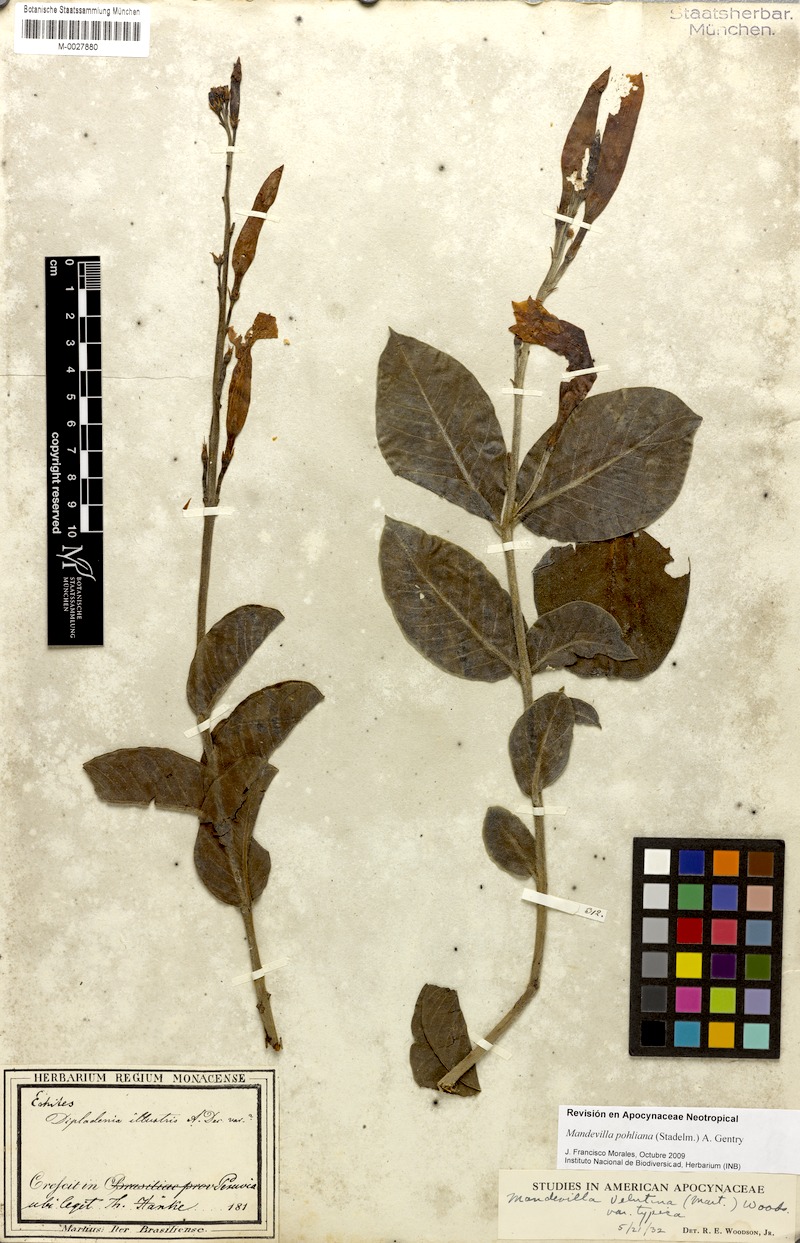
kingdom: Plantae
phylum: Tracheophyta
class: Magnoliopsida
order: Gentianales
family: Apocynaceae
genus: Mandevilla
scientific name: Mandevilla pohliana
